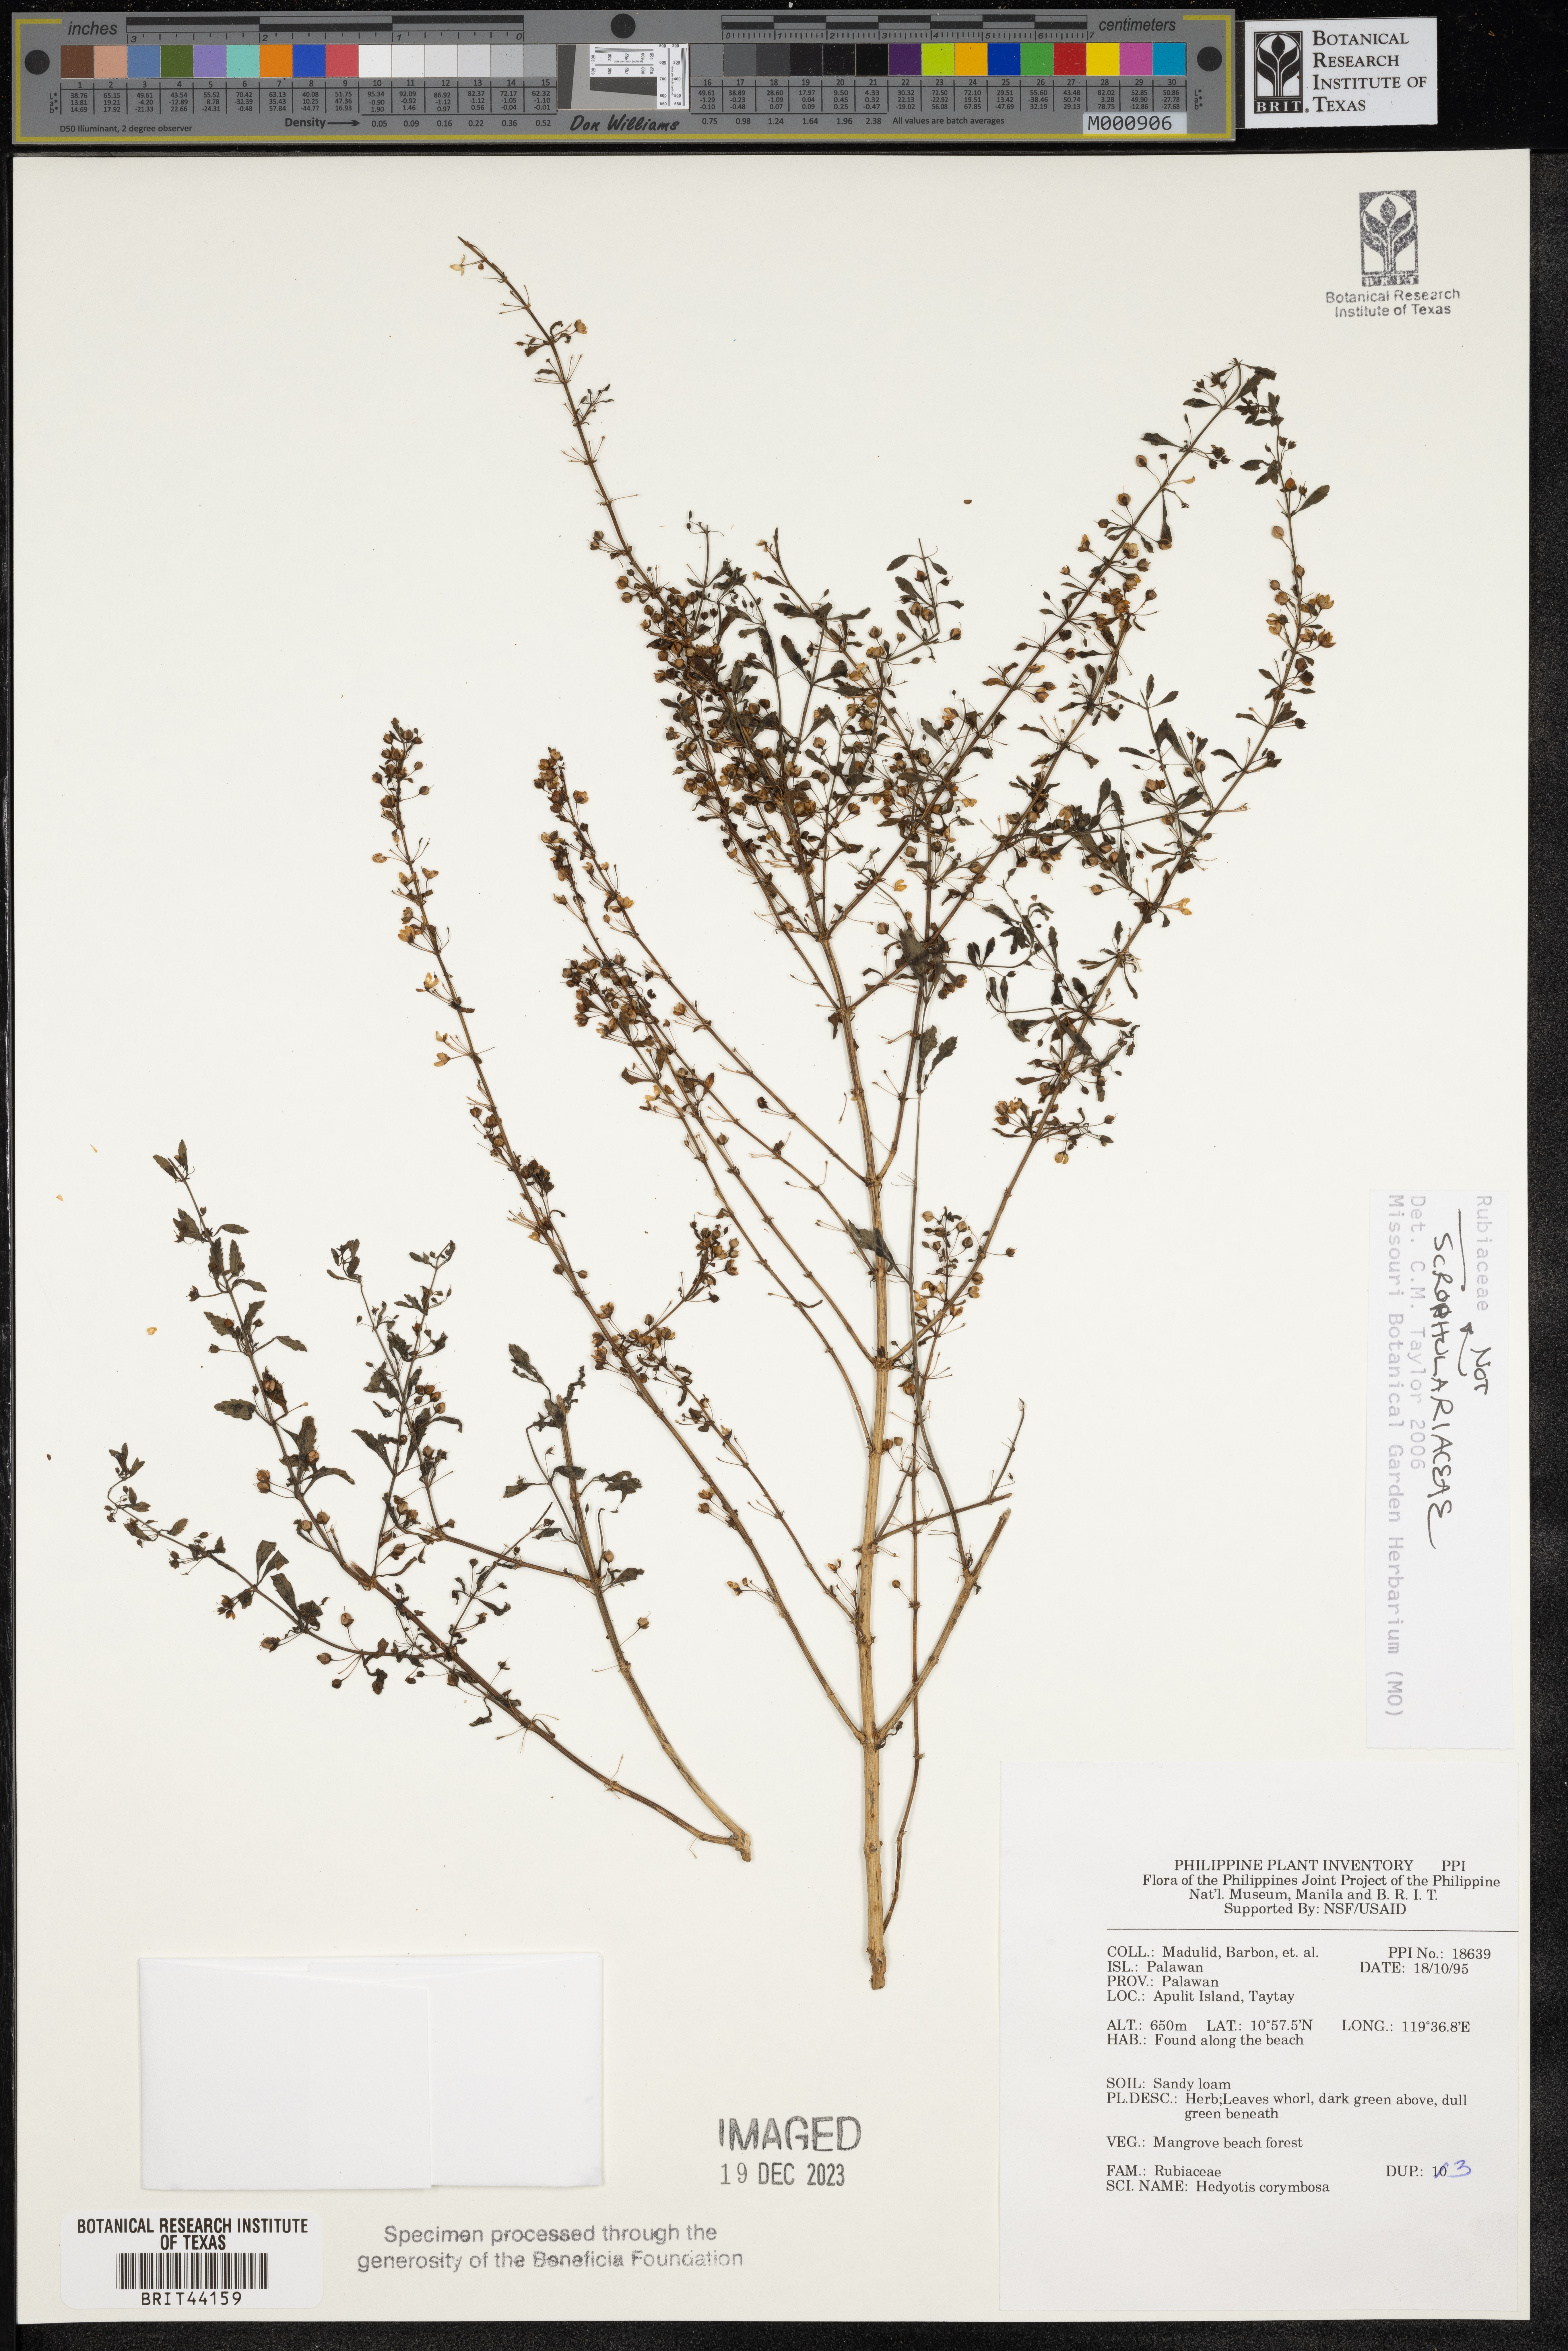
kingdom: Plantae
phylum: Tracheophyta
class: Magnoliopsida
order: Lamiales
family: Scrophulariaceae
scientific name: Scrophulariaceae
